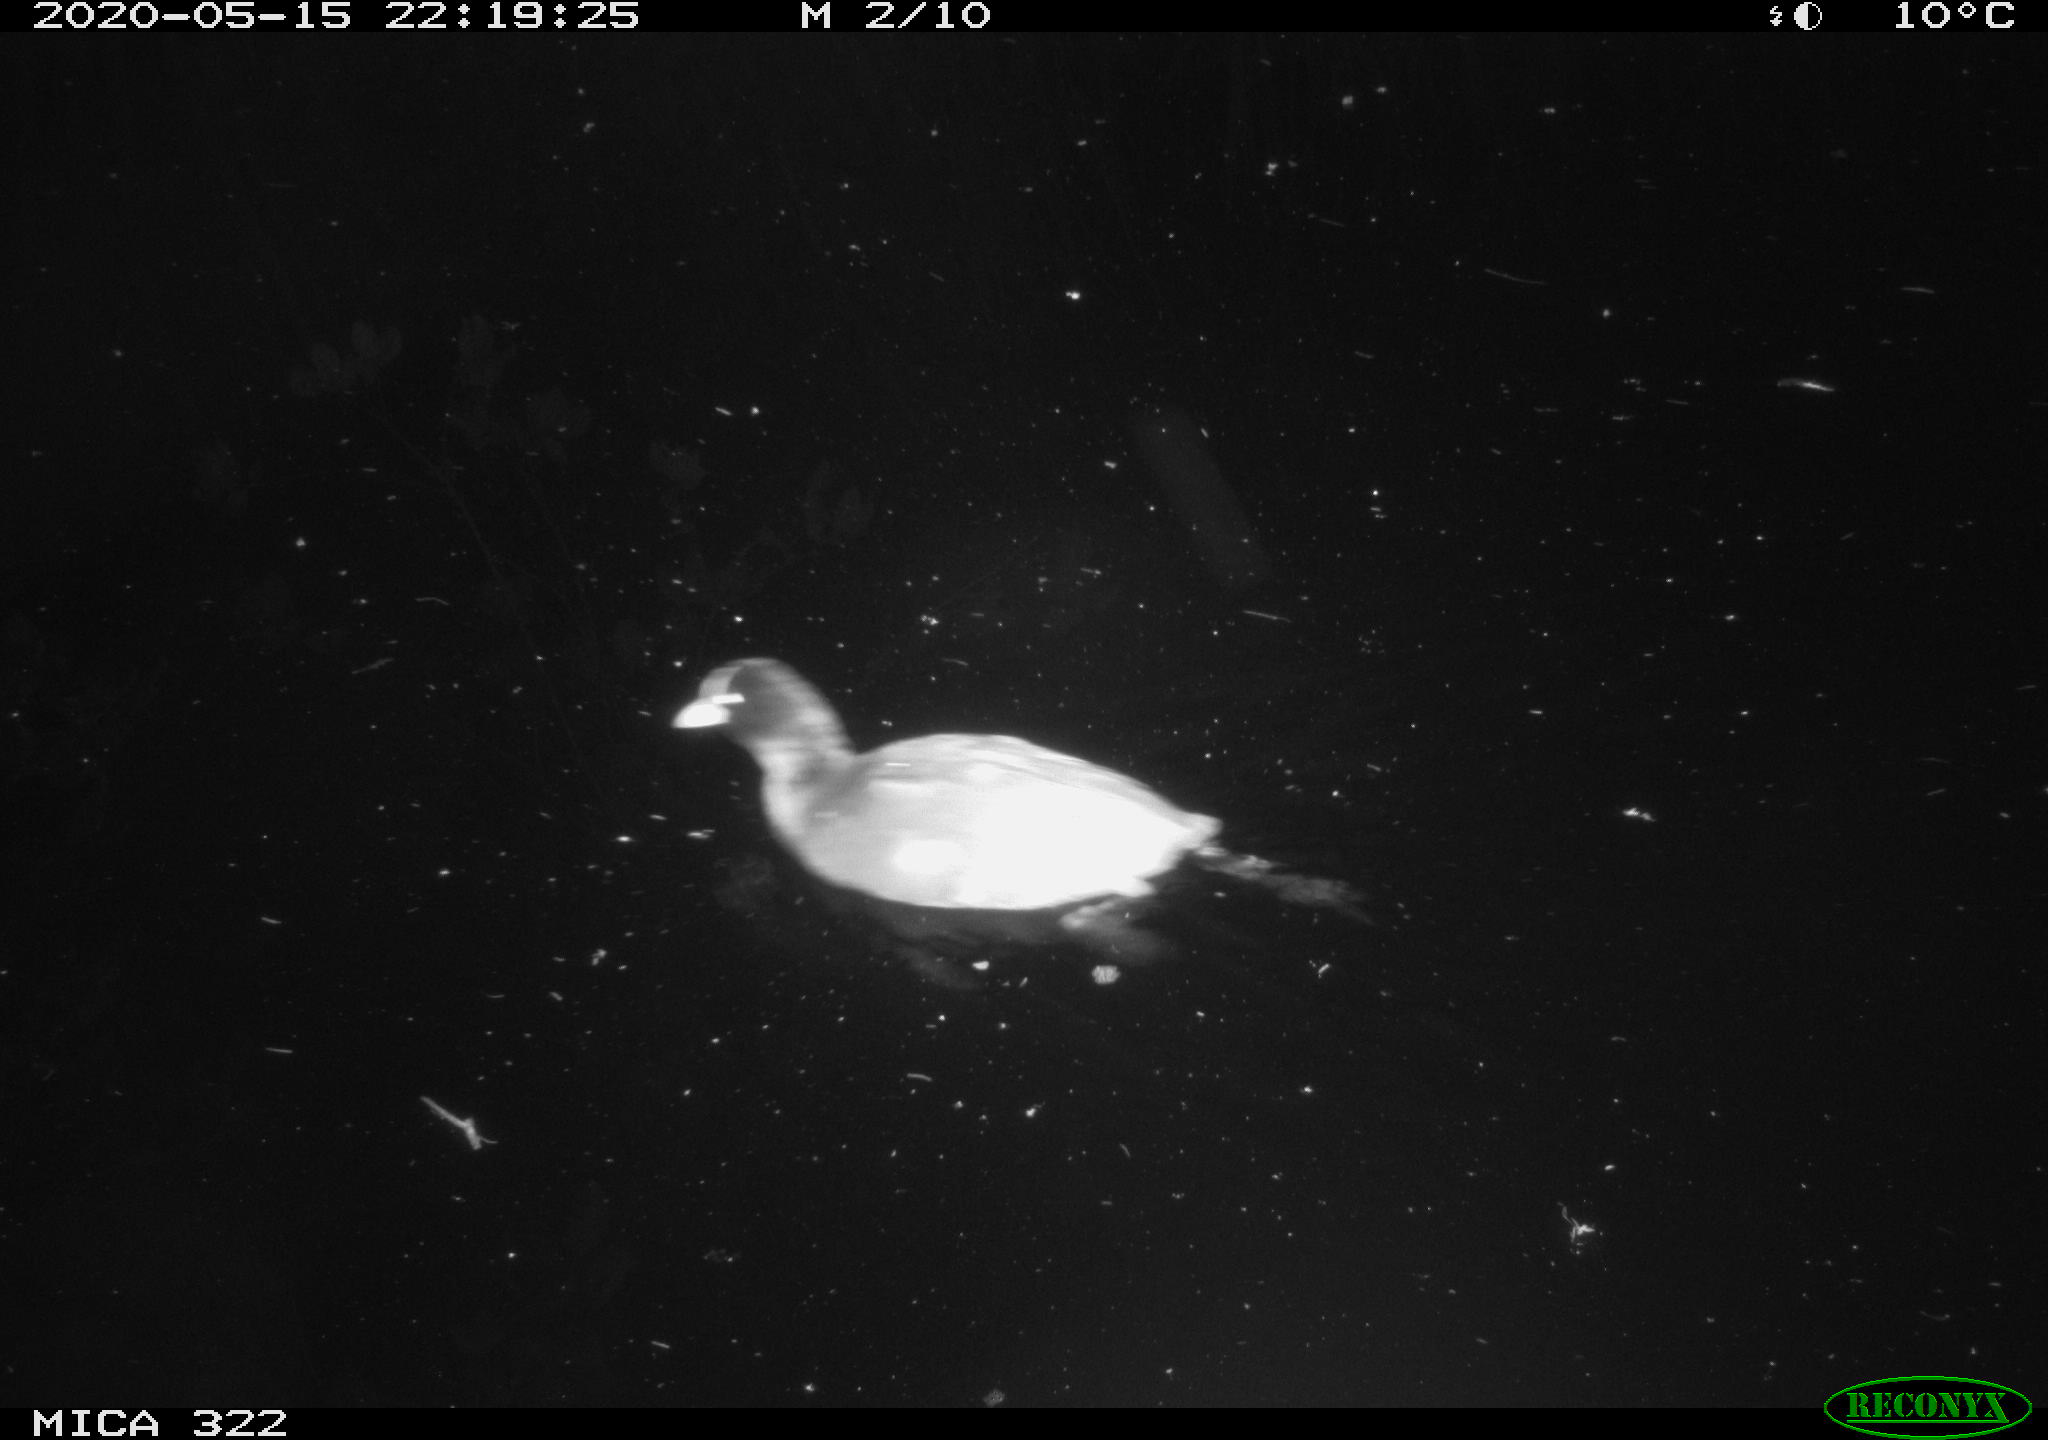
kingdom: Animalia
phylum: Chordata
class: Aves
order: Gruiformes
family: Rallidae
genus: Fulica
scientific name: Fulica atra
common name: Eurasian coot
